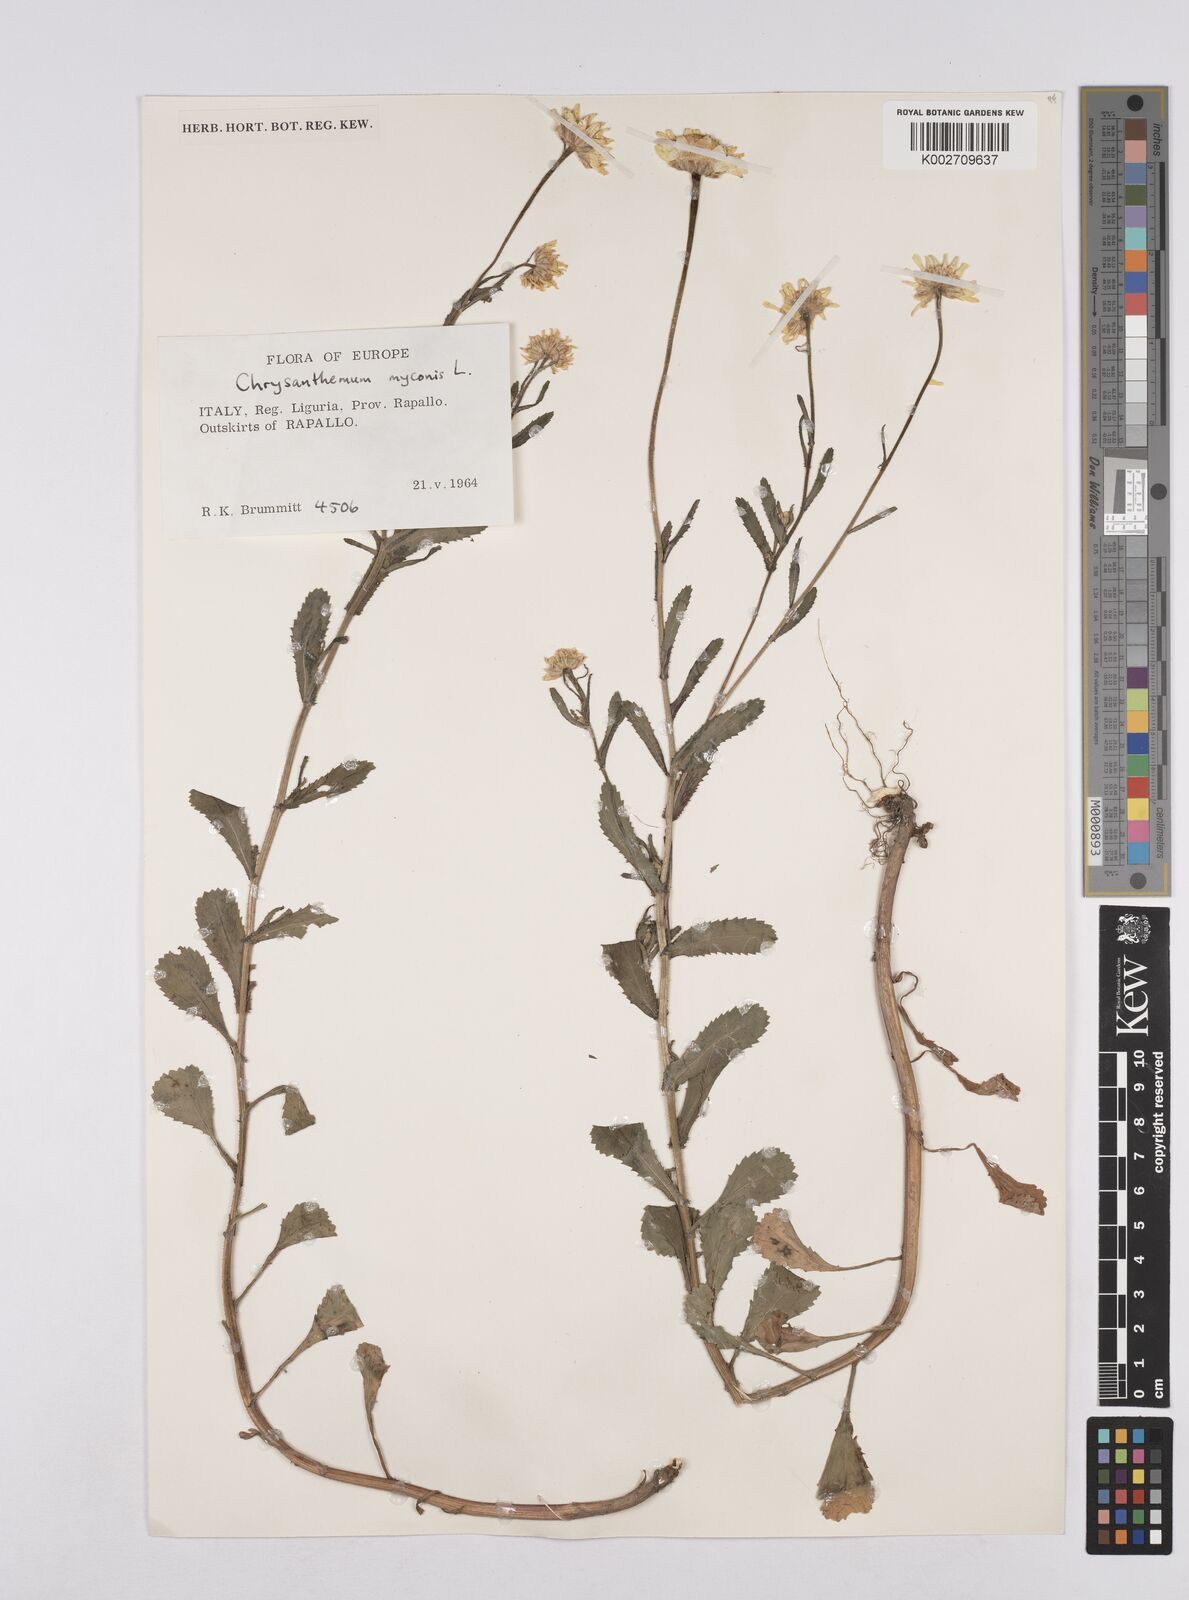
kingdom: Plantae
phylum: Tracheophyta
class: Magnoliopsida
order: Asterales
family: Asteraceae
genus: Coleostephus
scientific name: Coleostephus myconis
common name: Mediterranean marigold
